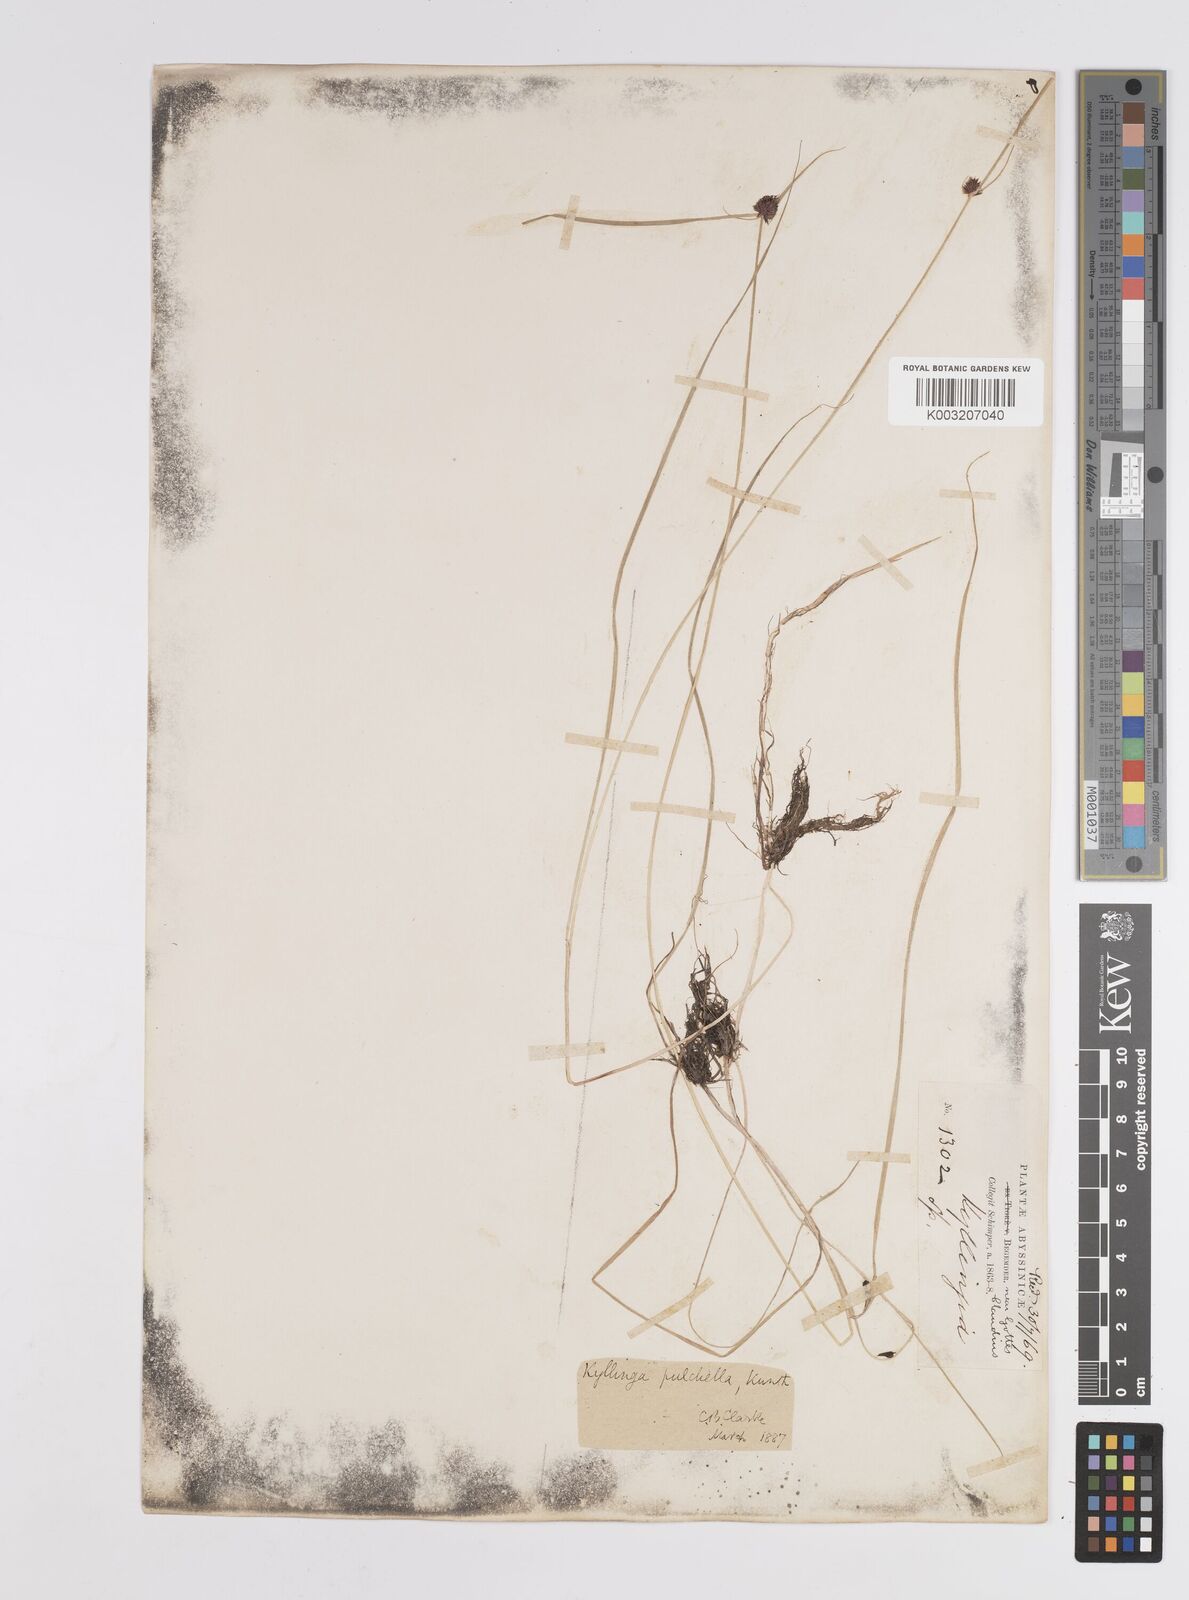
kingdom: Plantae
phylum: Tracheophyta
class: Liliopsida
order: Poales
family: Cyperaceae
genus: Cyperus
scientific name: Cyperus
